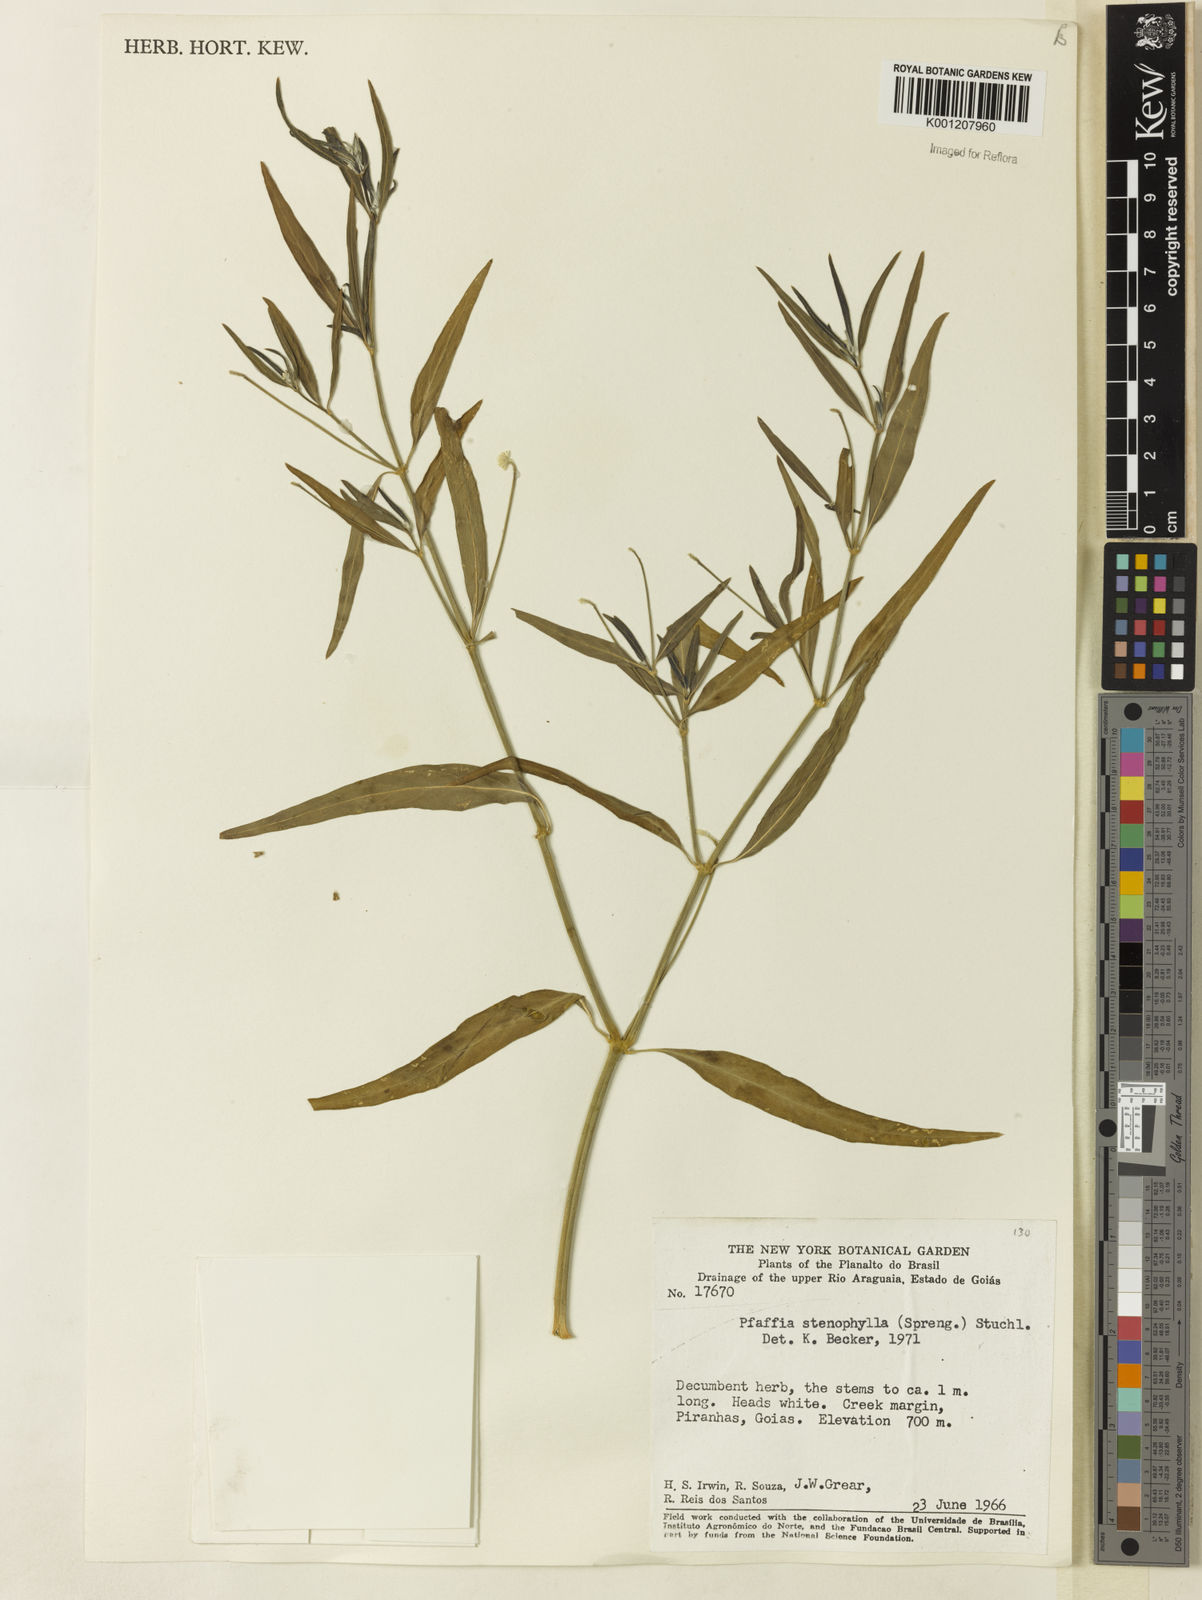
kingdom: Plantae
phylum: Tracheophyta
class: Magnoliopsida
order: Caryophyllales
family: Amaranthaceae
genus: Pfaffia
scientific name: Pfaffia
